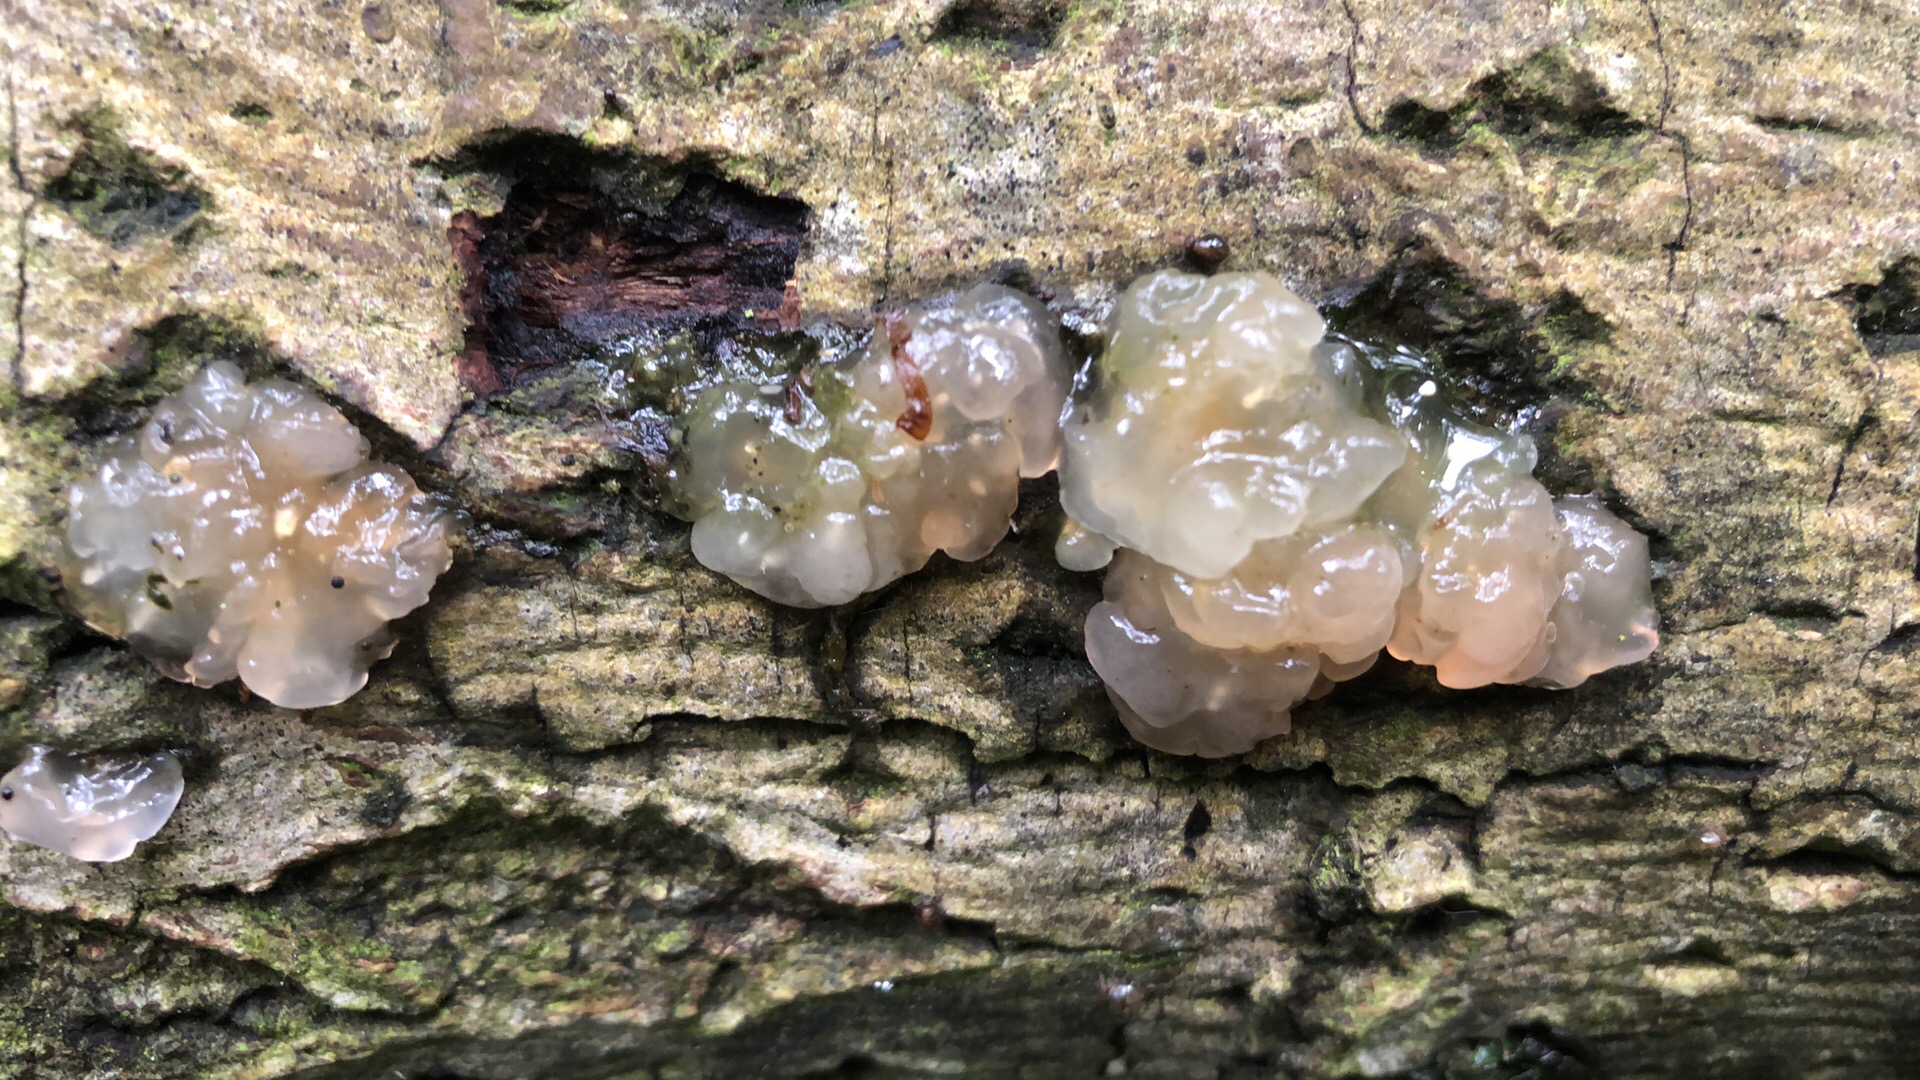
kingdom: Fungi
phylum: Basidiomycota
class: Agaricomycetes
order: Auriculariales
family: Hyaloriaceae
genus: Myxarium
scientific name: Myxarium nucleatum
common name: klar bævretop
